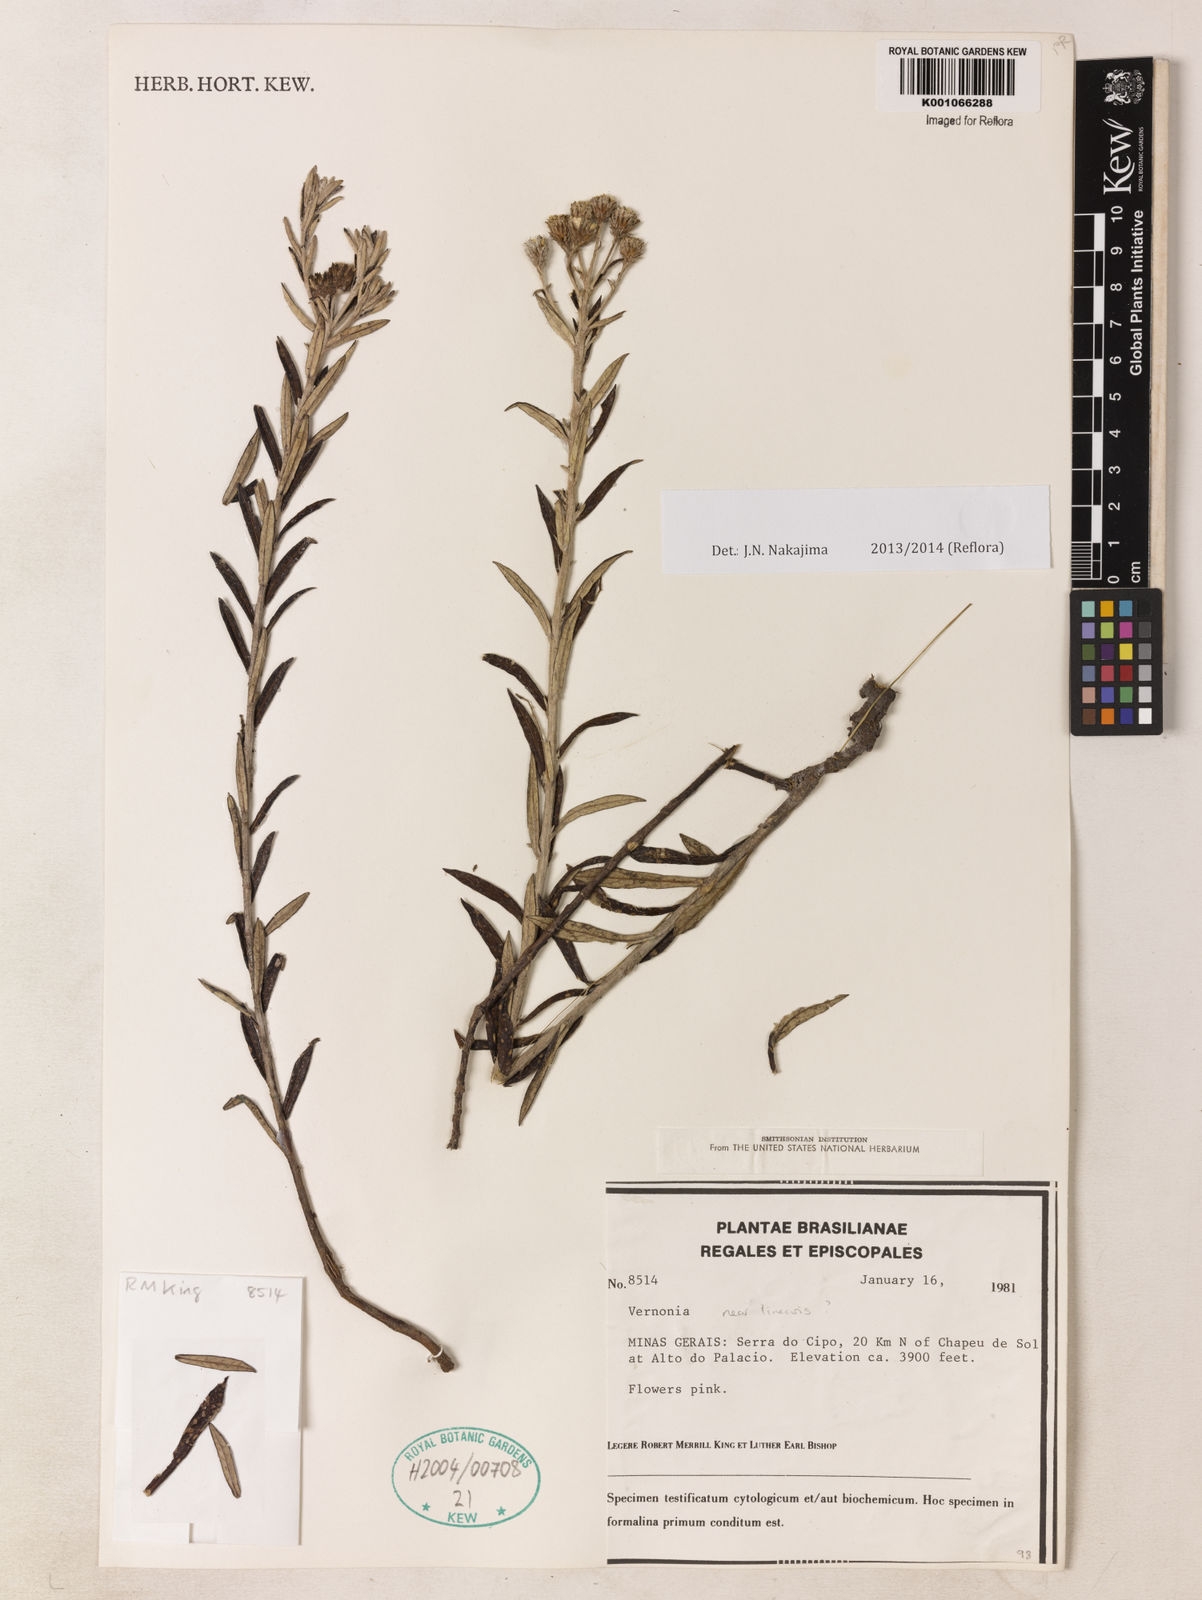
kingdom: Plantae
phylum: Tracheophyta
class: Magnoliopsida
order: Asterales
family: Asteraceae
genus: Lessingianthus
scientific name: Lessingianthus foliosus
